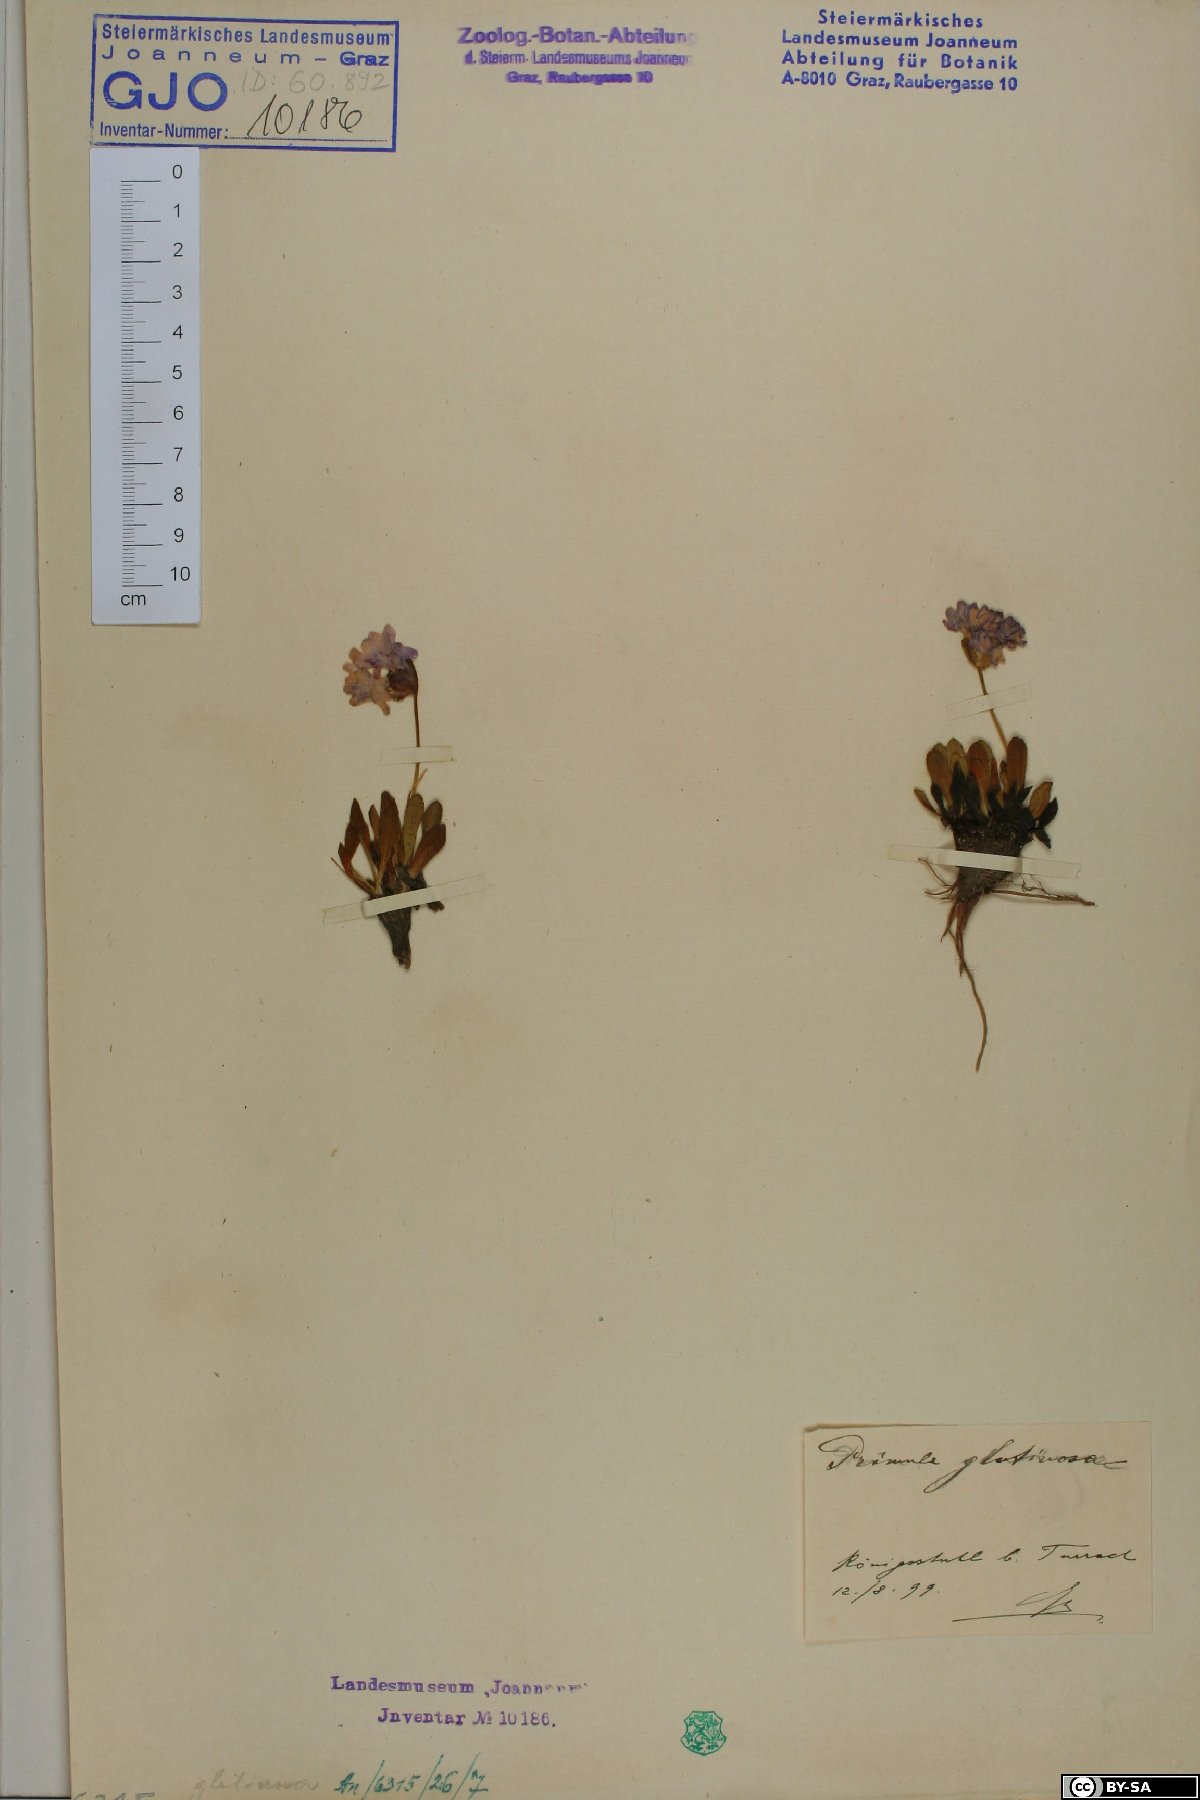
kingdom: Plantae
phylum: Tracheophyta
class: Magnoliopsida
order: Ericales
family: Primulaceae
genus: Primula
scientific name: Primula glutinosa
